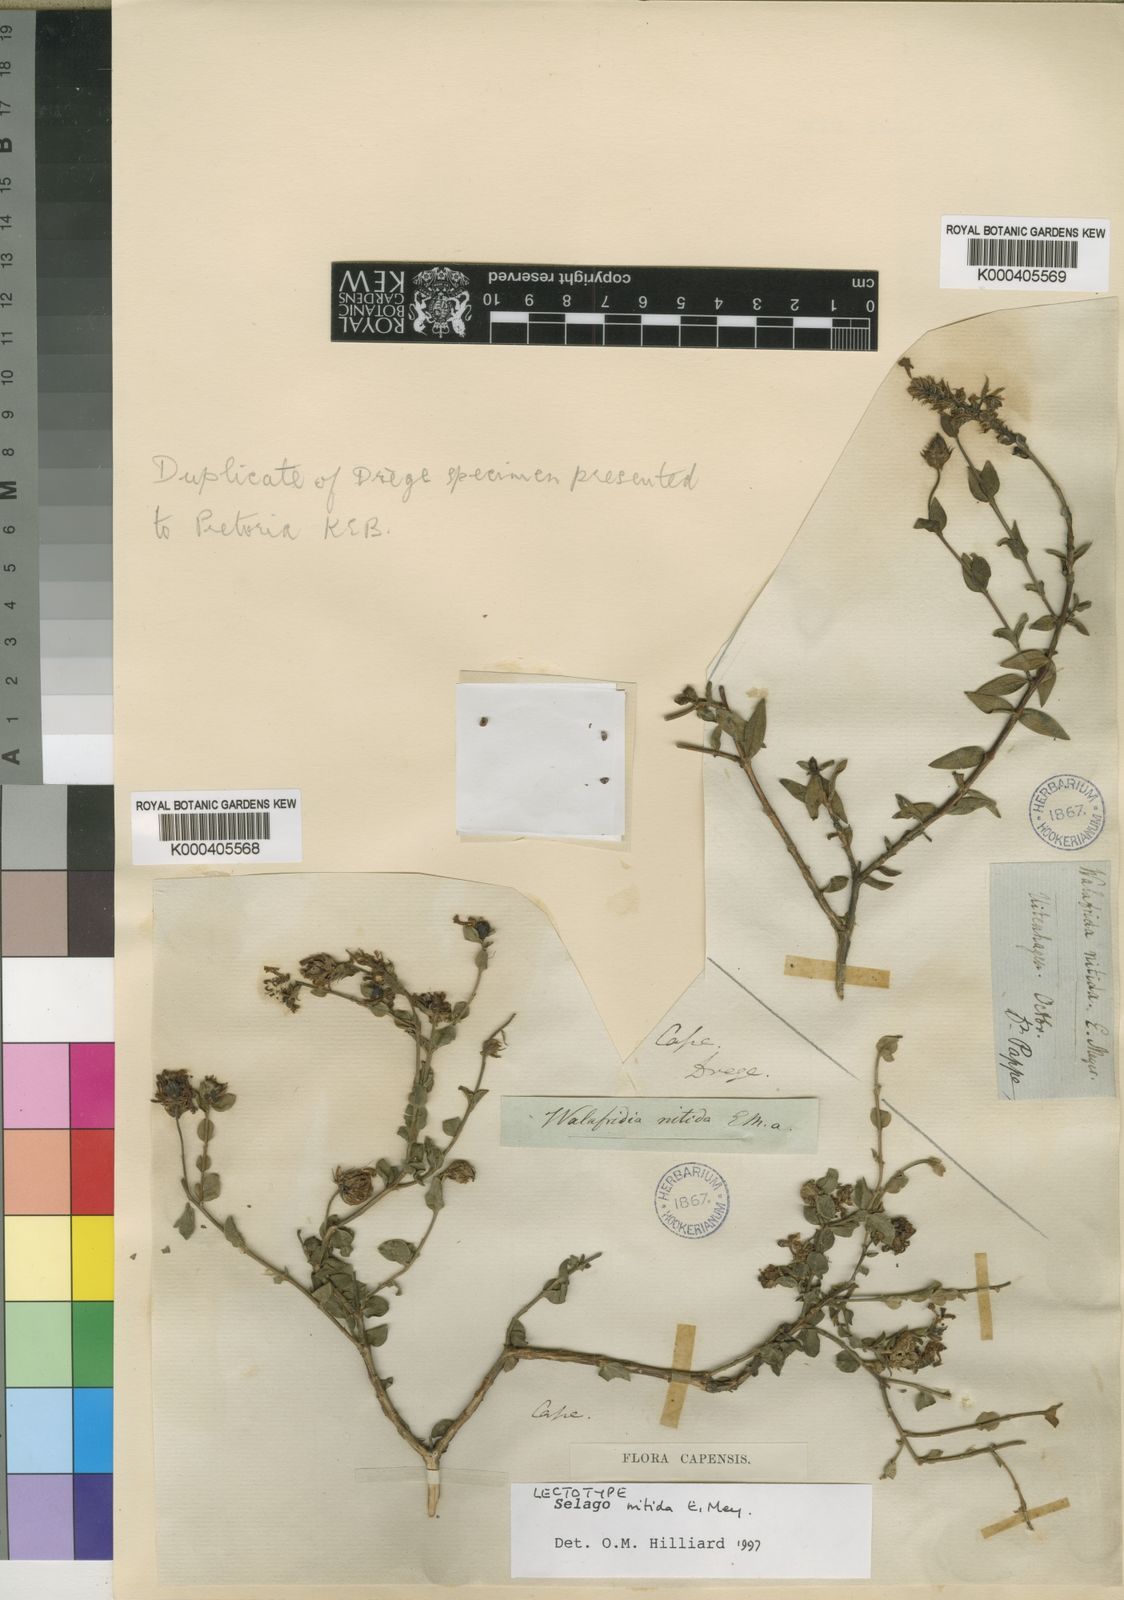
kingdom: Plantae
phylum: Tracheophyta
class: Magnoliopsida
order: Lamiales
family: Scrophulariaceae
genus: Selago
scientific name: Selago myrtifolia
